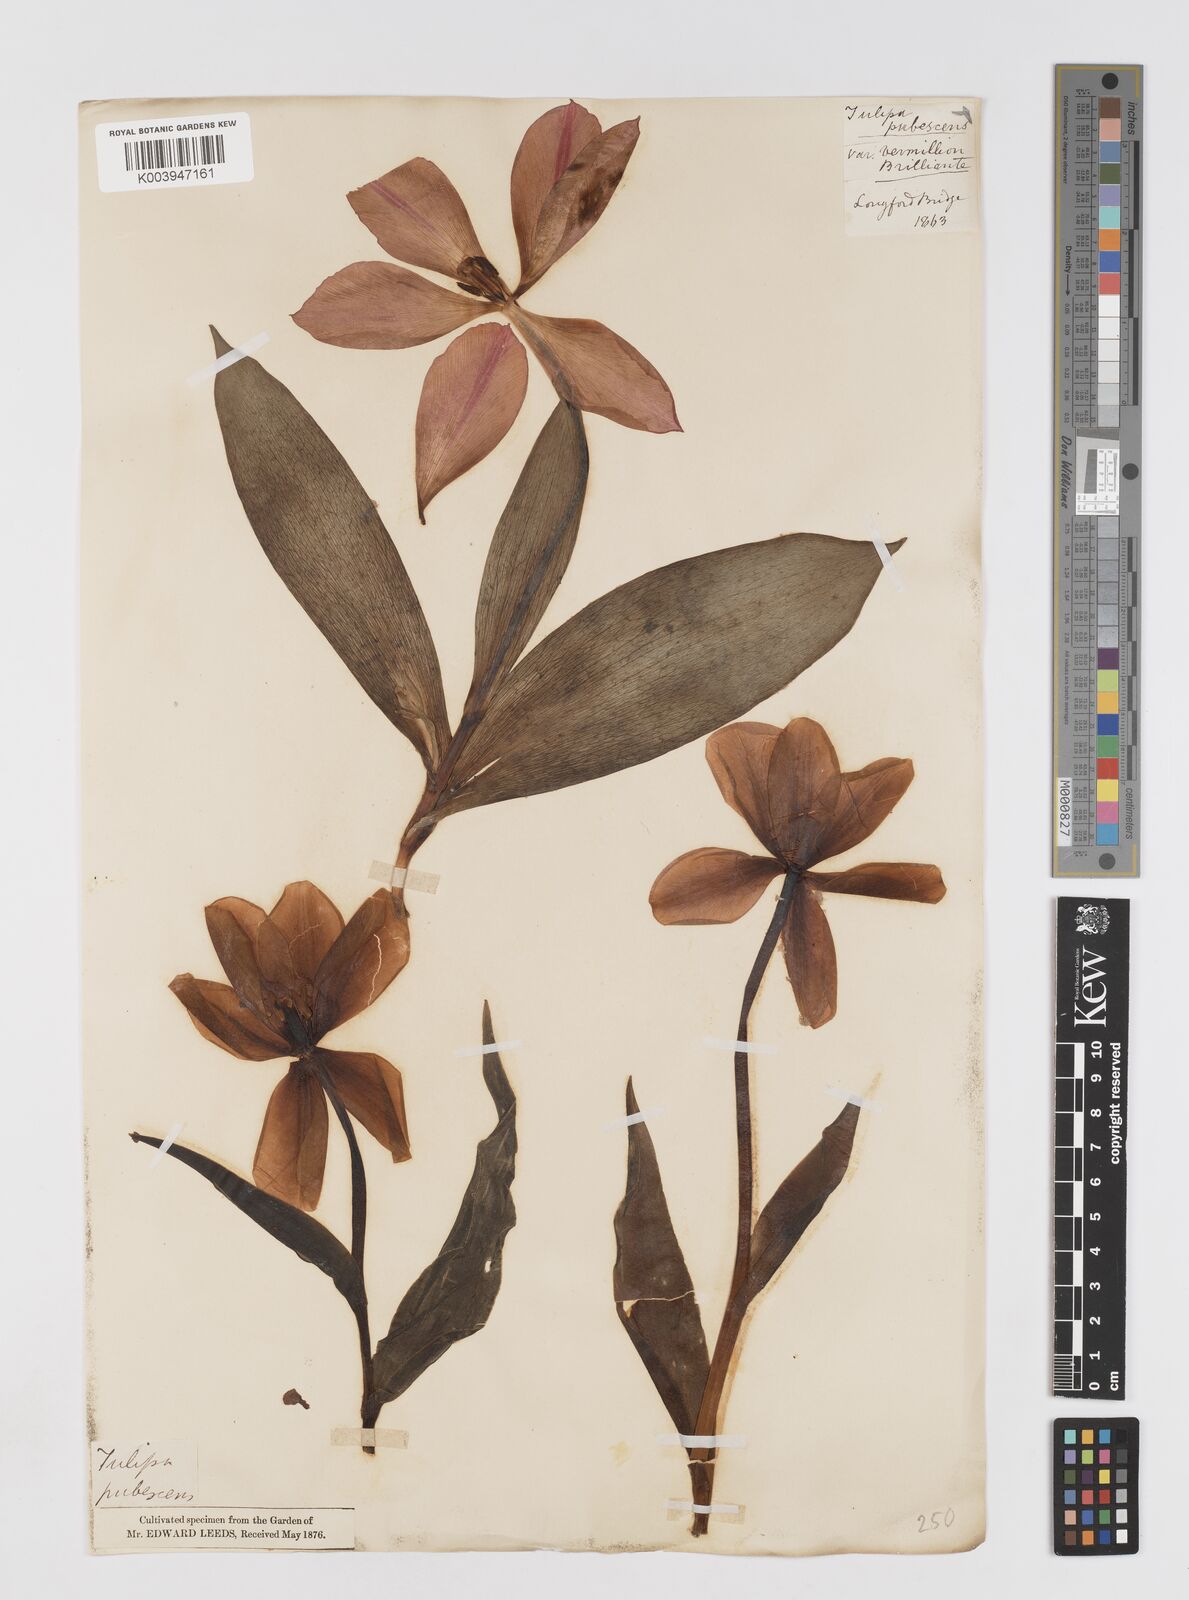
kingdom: Plantae
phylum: Tracheophyta
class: Liliopsida
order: Liliales
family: Liliaceae
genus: Tulipa
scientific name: Tulipa gesneriana
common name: Garden tulip
